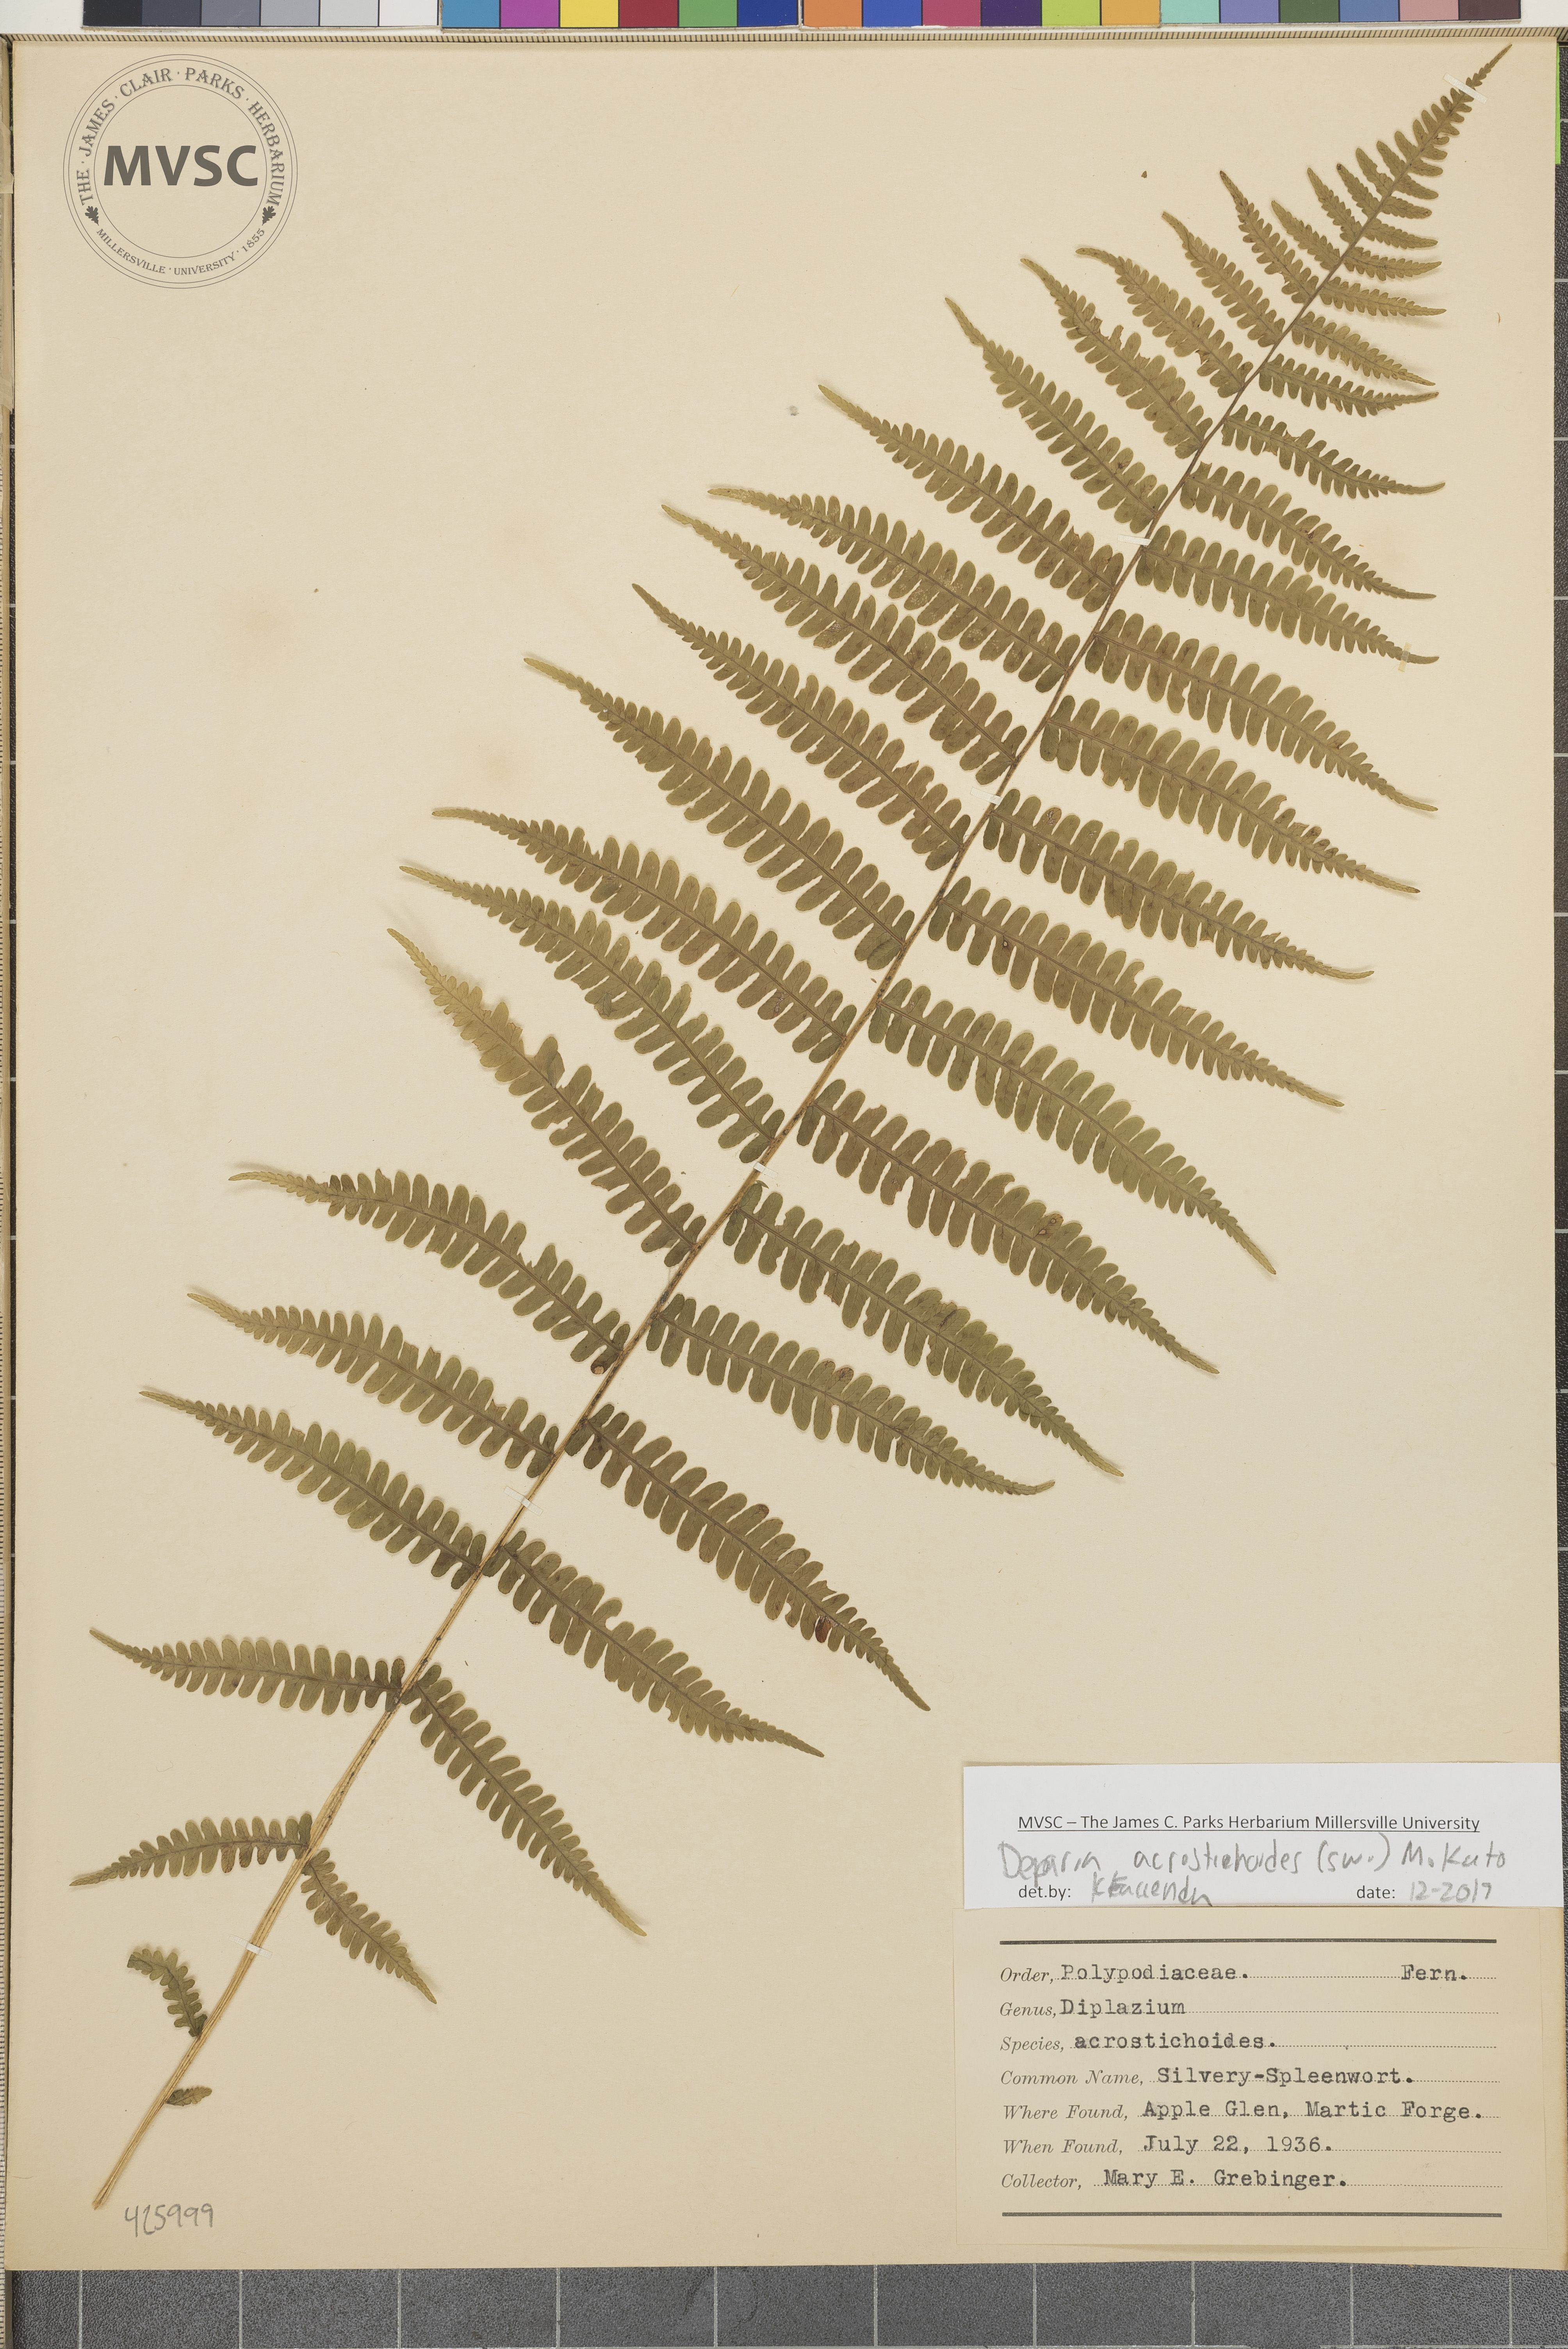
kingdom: Plantae
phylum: Tracheophyta
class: Polypodiopsida
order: Polypodiales
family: Athyriaceae
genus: Deparia
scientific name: Deparia acrostichoides
